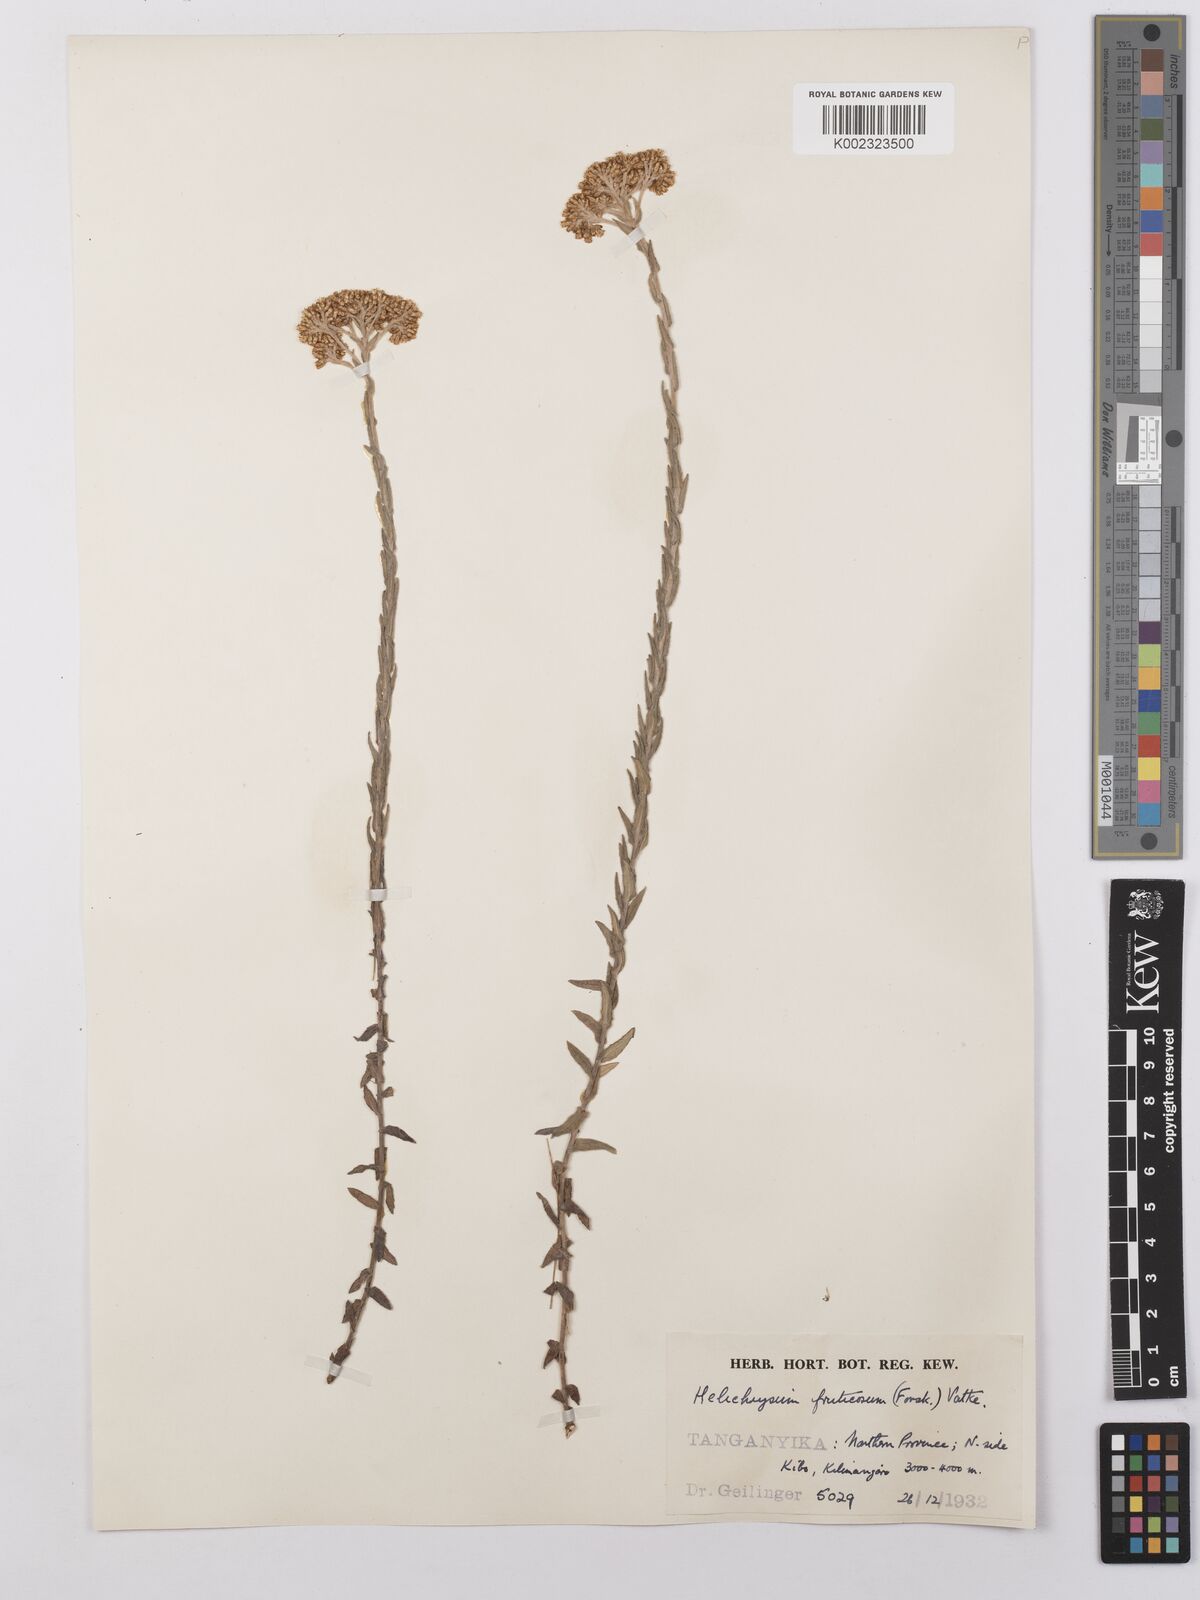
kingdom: Plantae
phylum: Tracheophyta
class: Magnoliopsida
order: Asterales
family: Asteraceae
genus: Helichrysum
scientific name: Helichrysum forskahlii
